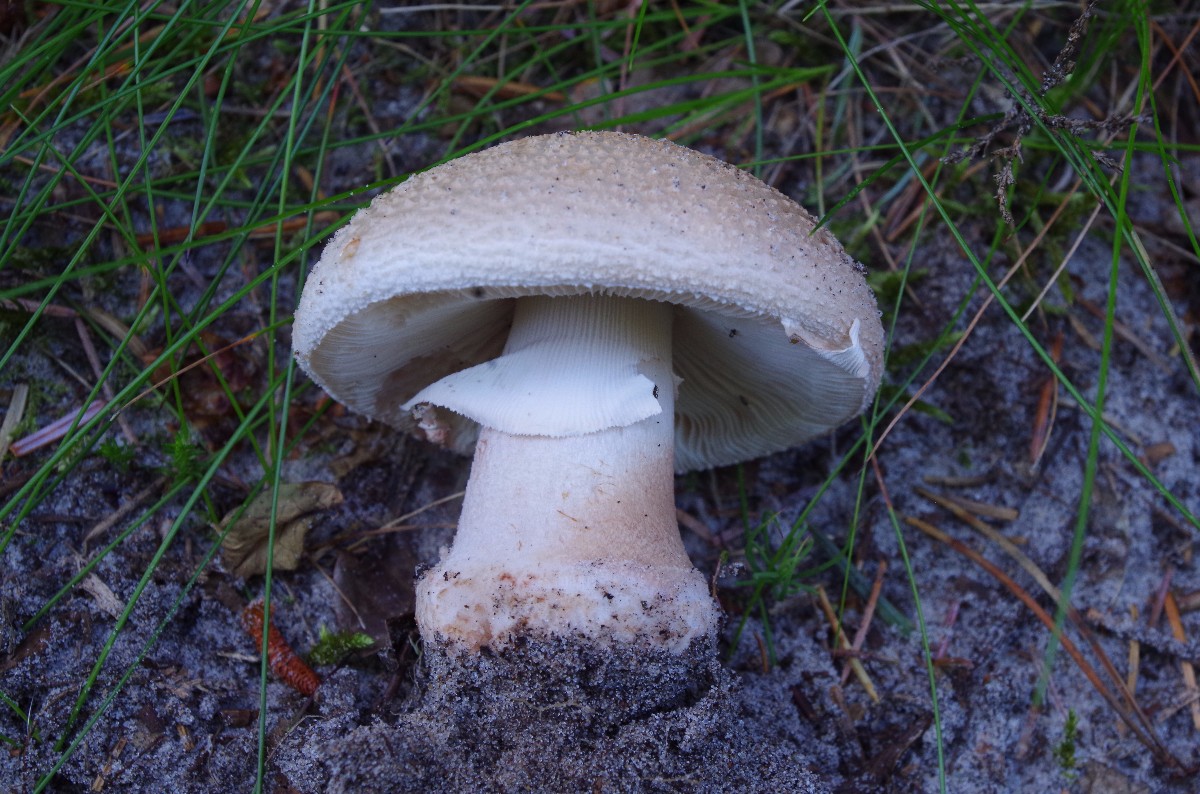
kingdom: Fungi
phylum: Basidiomycota
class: Agaricomycetes
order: Agaricales
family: Amanitaceae
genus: Amanita
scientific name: Amanita rubescens
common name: rødmende fluesvamp
